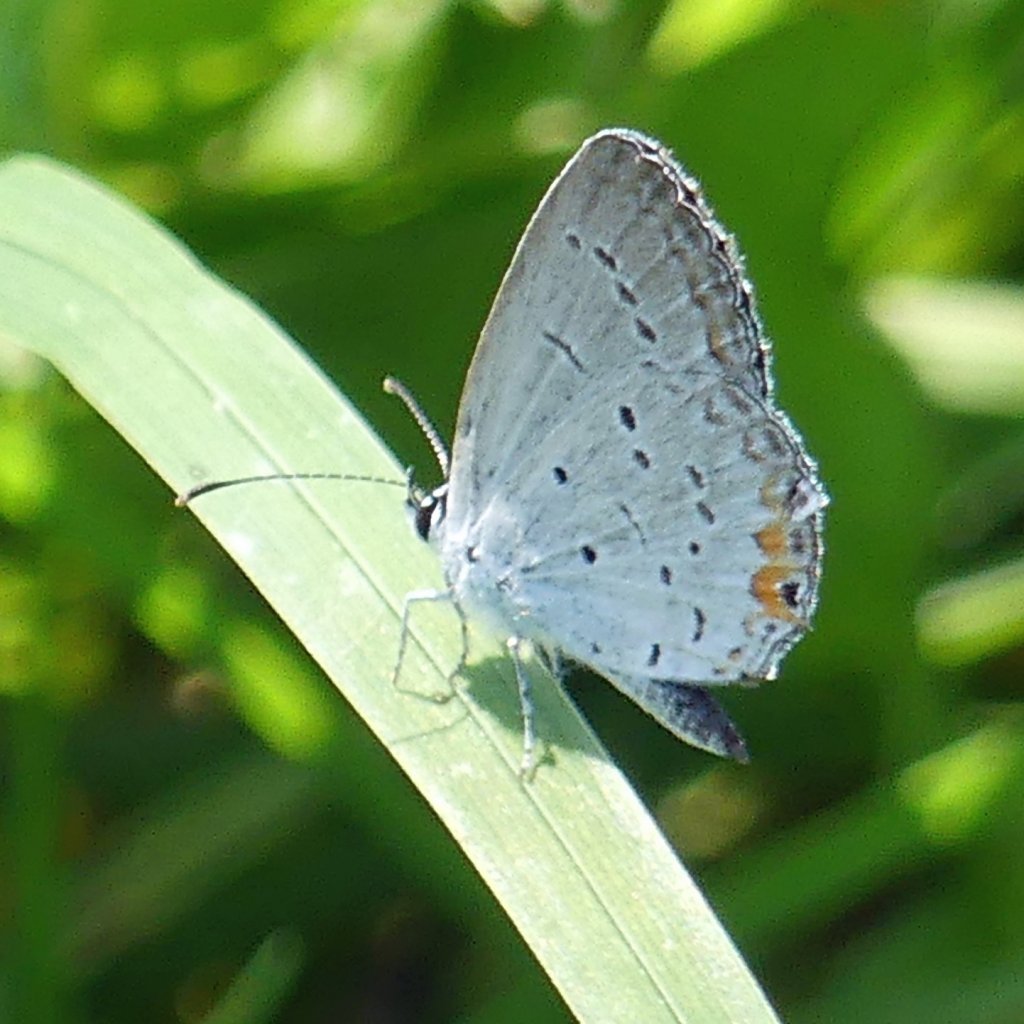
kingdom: Animalia
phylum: Arthropoda
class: Insecta
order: Lepidoptera
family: Lycaenidae
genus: Elkalyce
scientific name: Elkalyce comyntas
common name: Eastern Tailed-Blue
